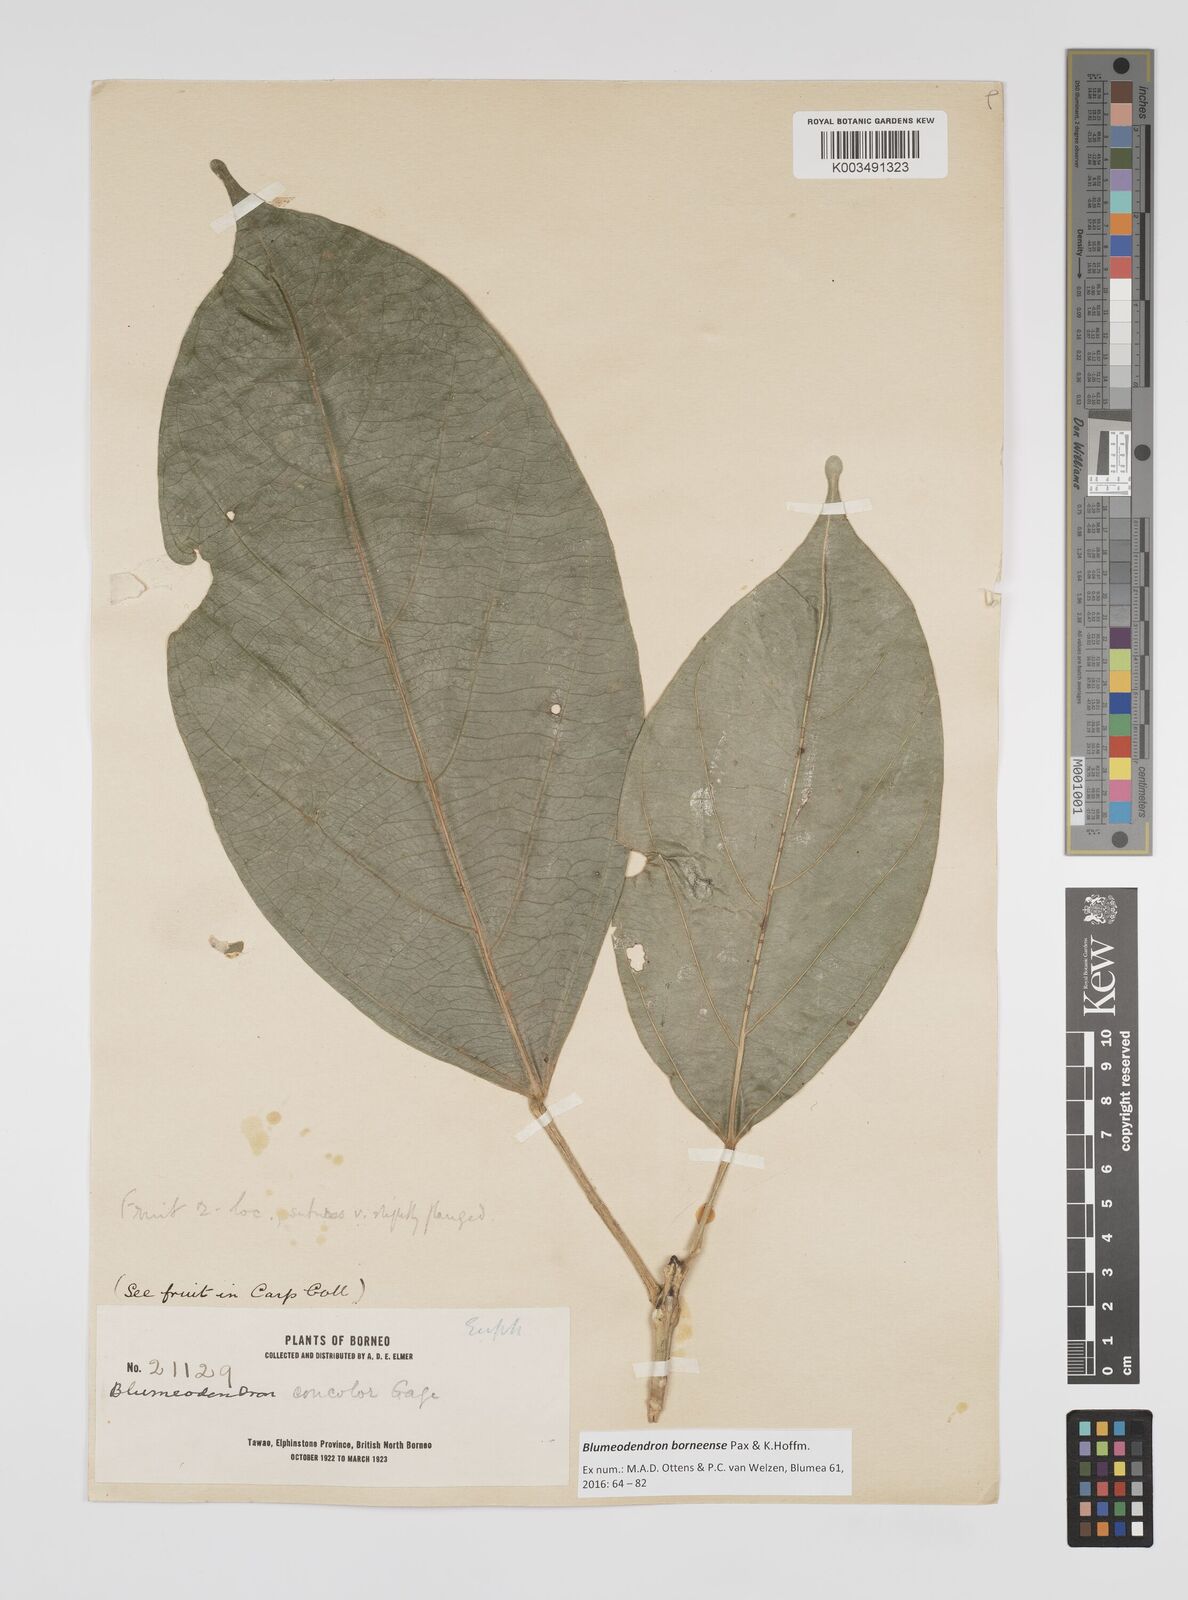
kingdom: Plantae
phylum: Tracheophyta
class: Magnoliopsida
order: Malpighiales
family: Euphorbiaceae
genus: Blumeodendron
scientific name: Blumeodendron borneense
